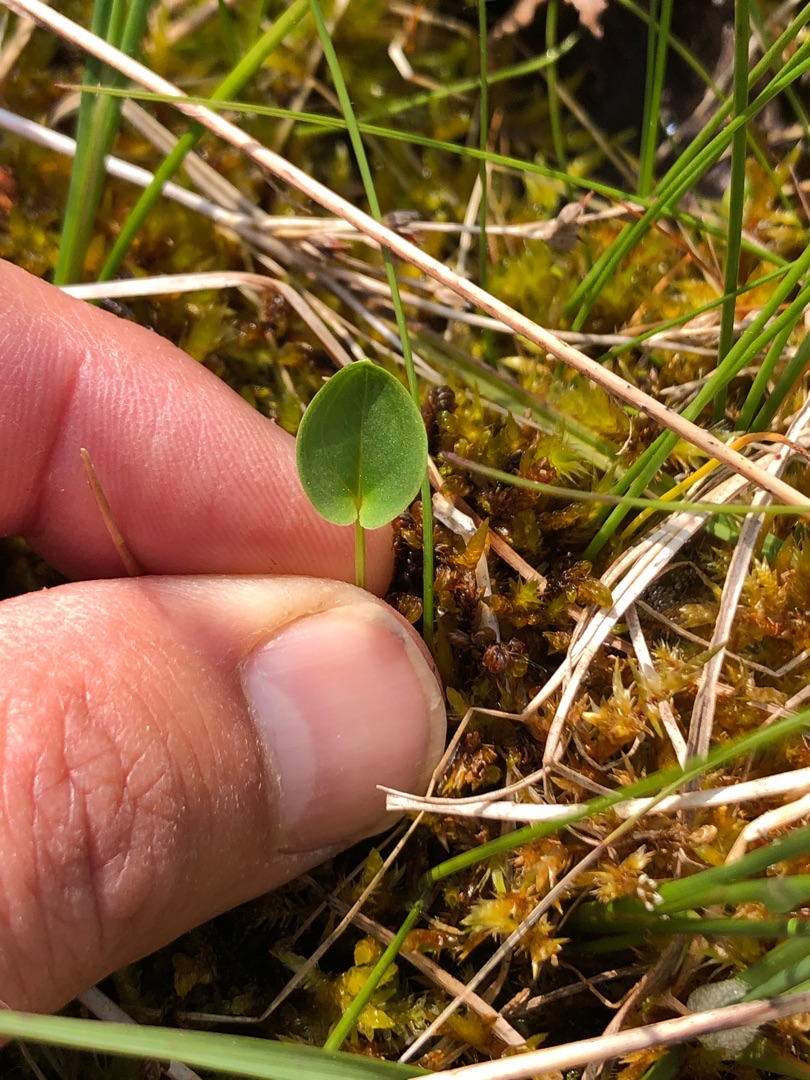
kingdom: Plantae
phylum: Tracheophyta
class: Magnoliopsida
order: Celastrales
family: Parnassiaceae
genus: Parnassia
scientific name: Parnassia palustris
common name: Leverurt
